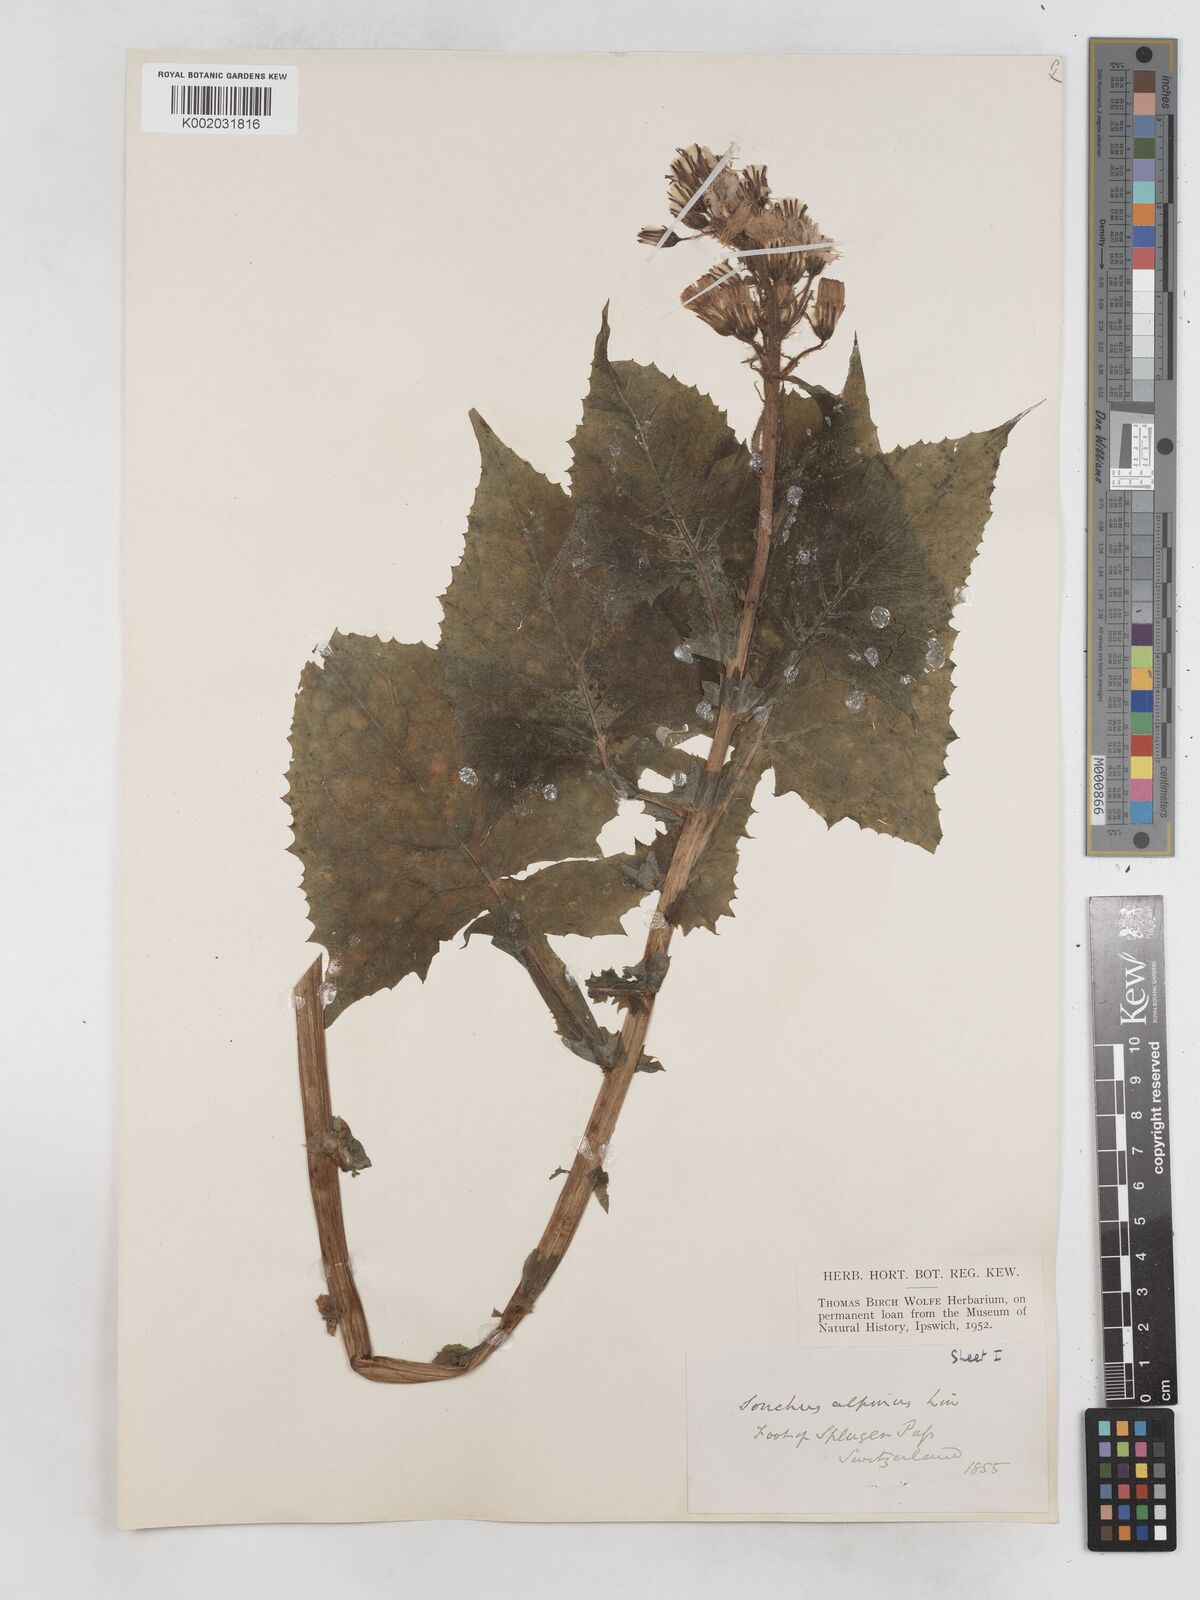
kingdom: Plantae
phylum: Tracheophyta
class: Magnoliopsida
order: Asterales
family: Asteraceae
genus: Cicerbita
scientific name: Cicerbita alpina
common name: Alpine blue-sow-thistle
